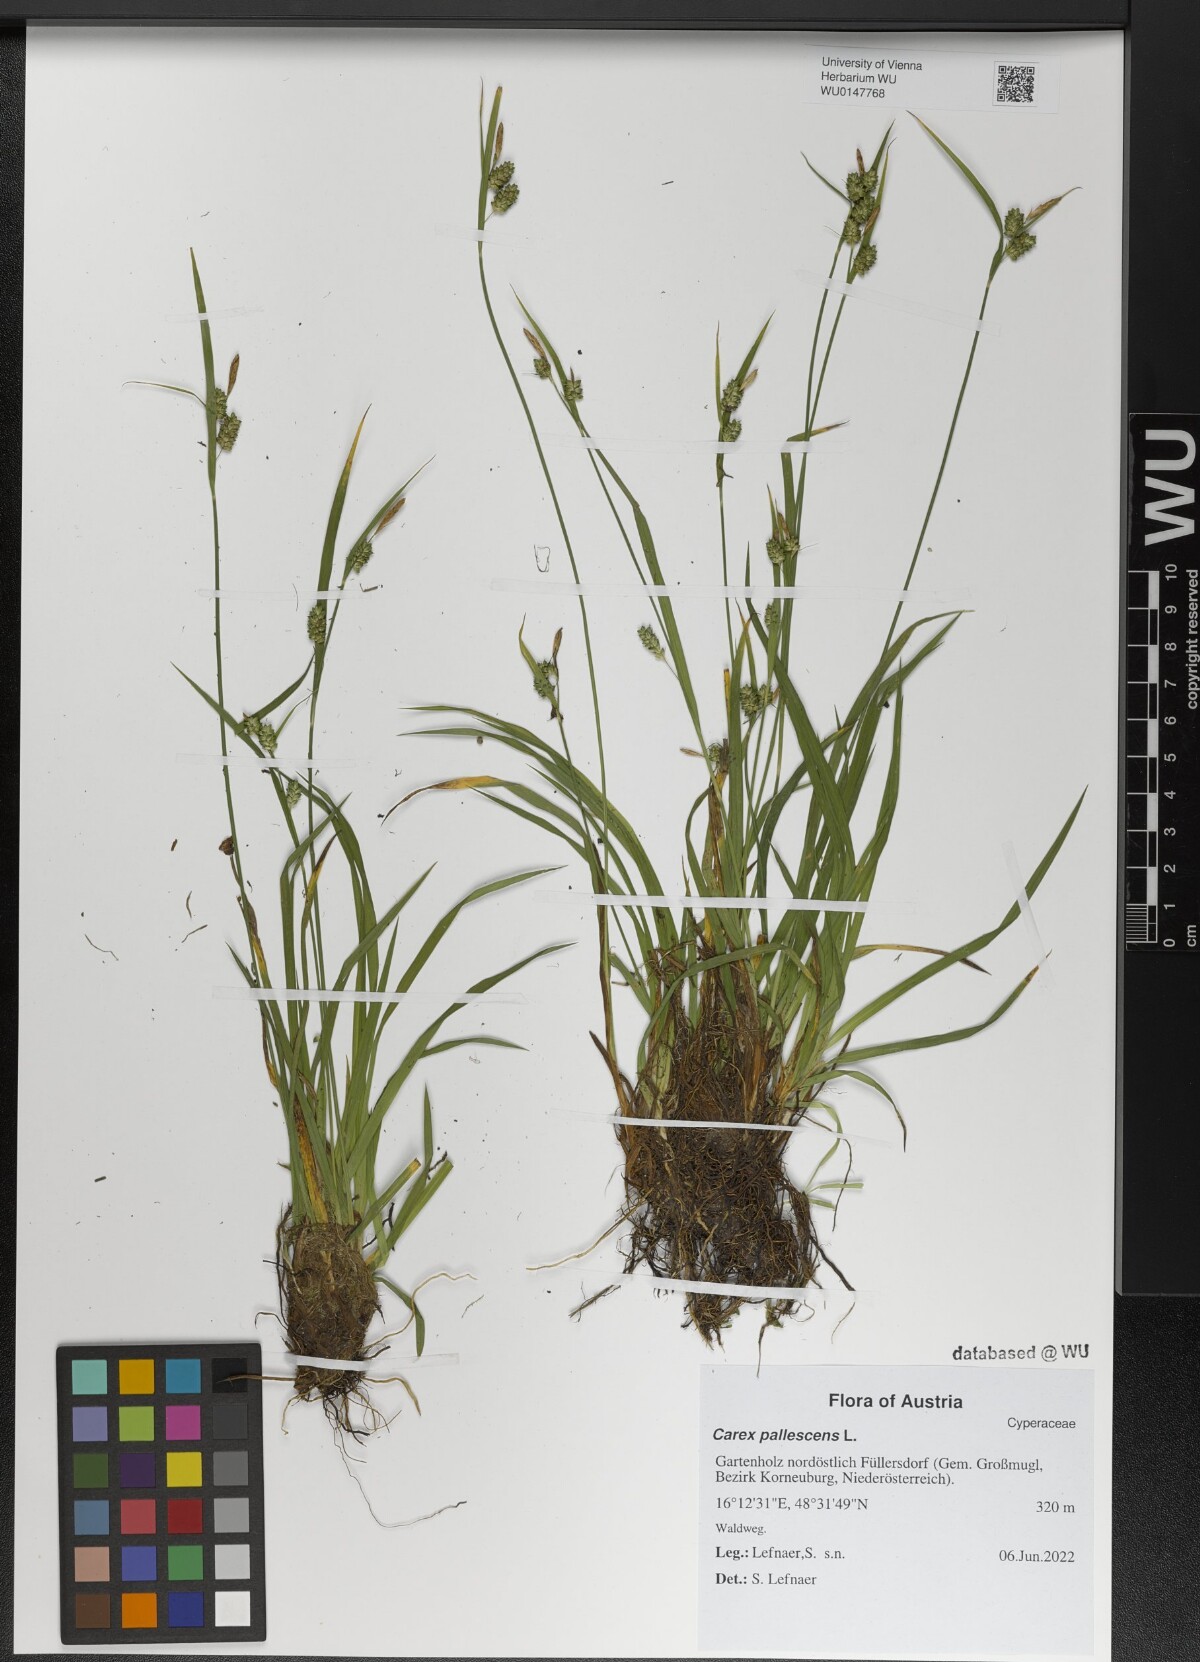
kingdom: Plantae
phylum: Tracheophyta
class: Liliopsida
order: Poales
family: Cyperaceae
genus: Carex
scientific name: Carex pallescens
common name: Pale sedge
